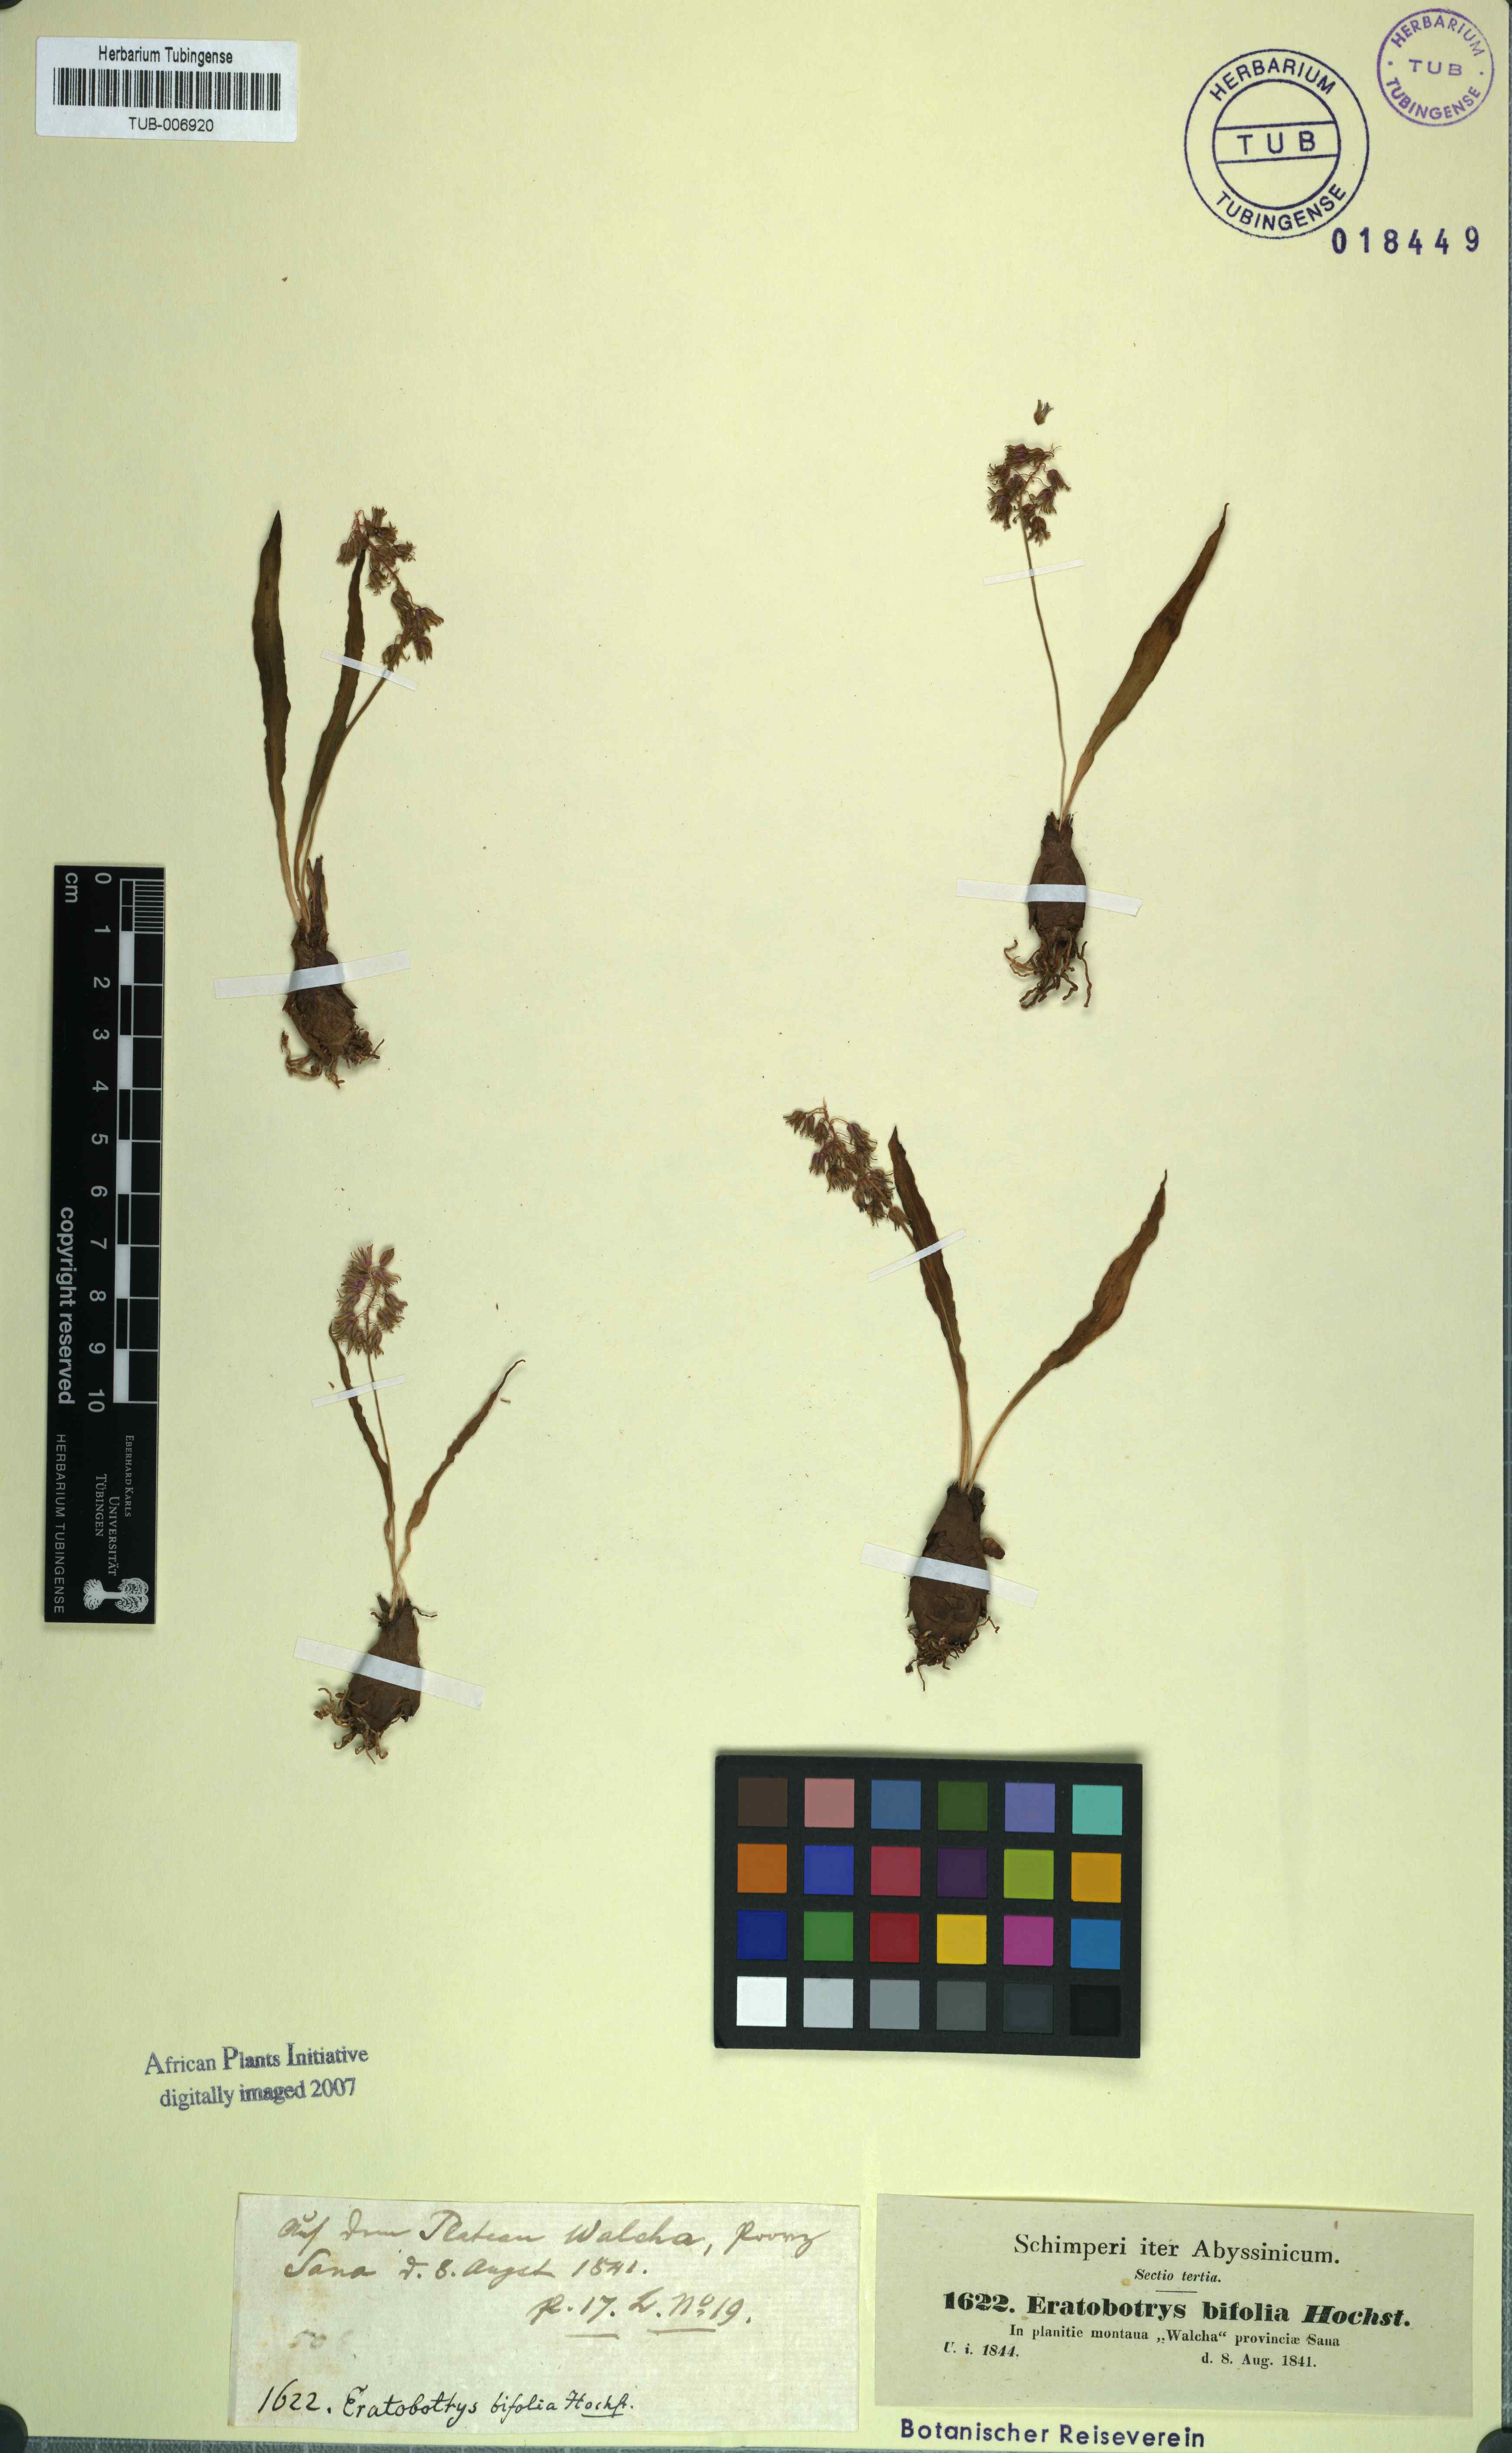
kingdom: Plantae
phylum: Tracheophyta
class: Liliopsida
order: Asparagales
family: Asparagaceae
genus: Ledebouria
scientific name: Ledebouria revoluta
